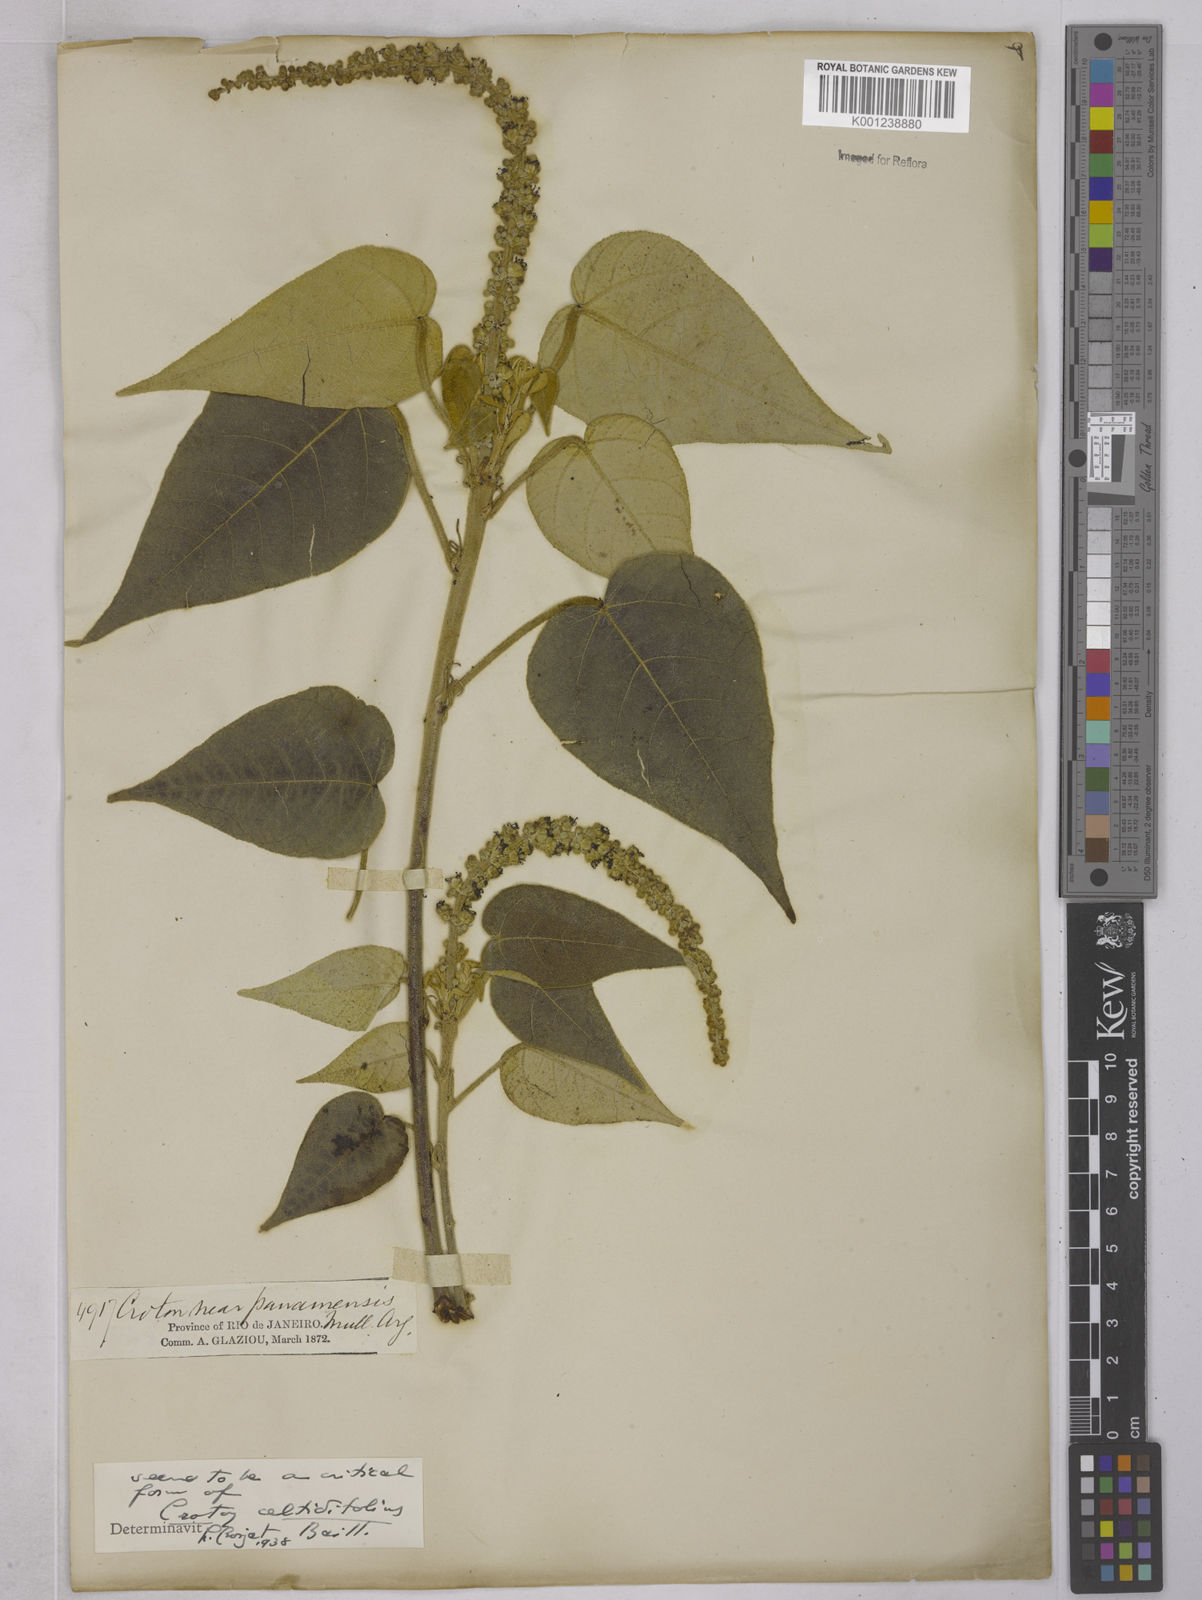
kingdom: Plantae
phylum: Tracheophyta
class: Magnoliopsida
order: Malpighiales
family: Euphorbiaceae
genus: Croton
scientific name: Croton celtidifolius
